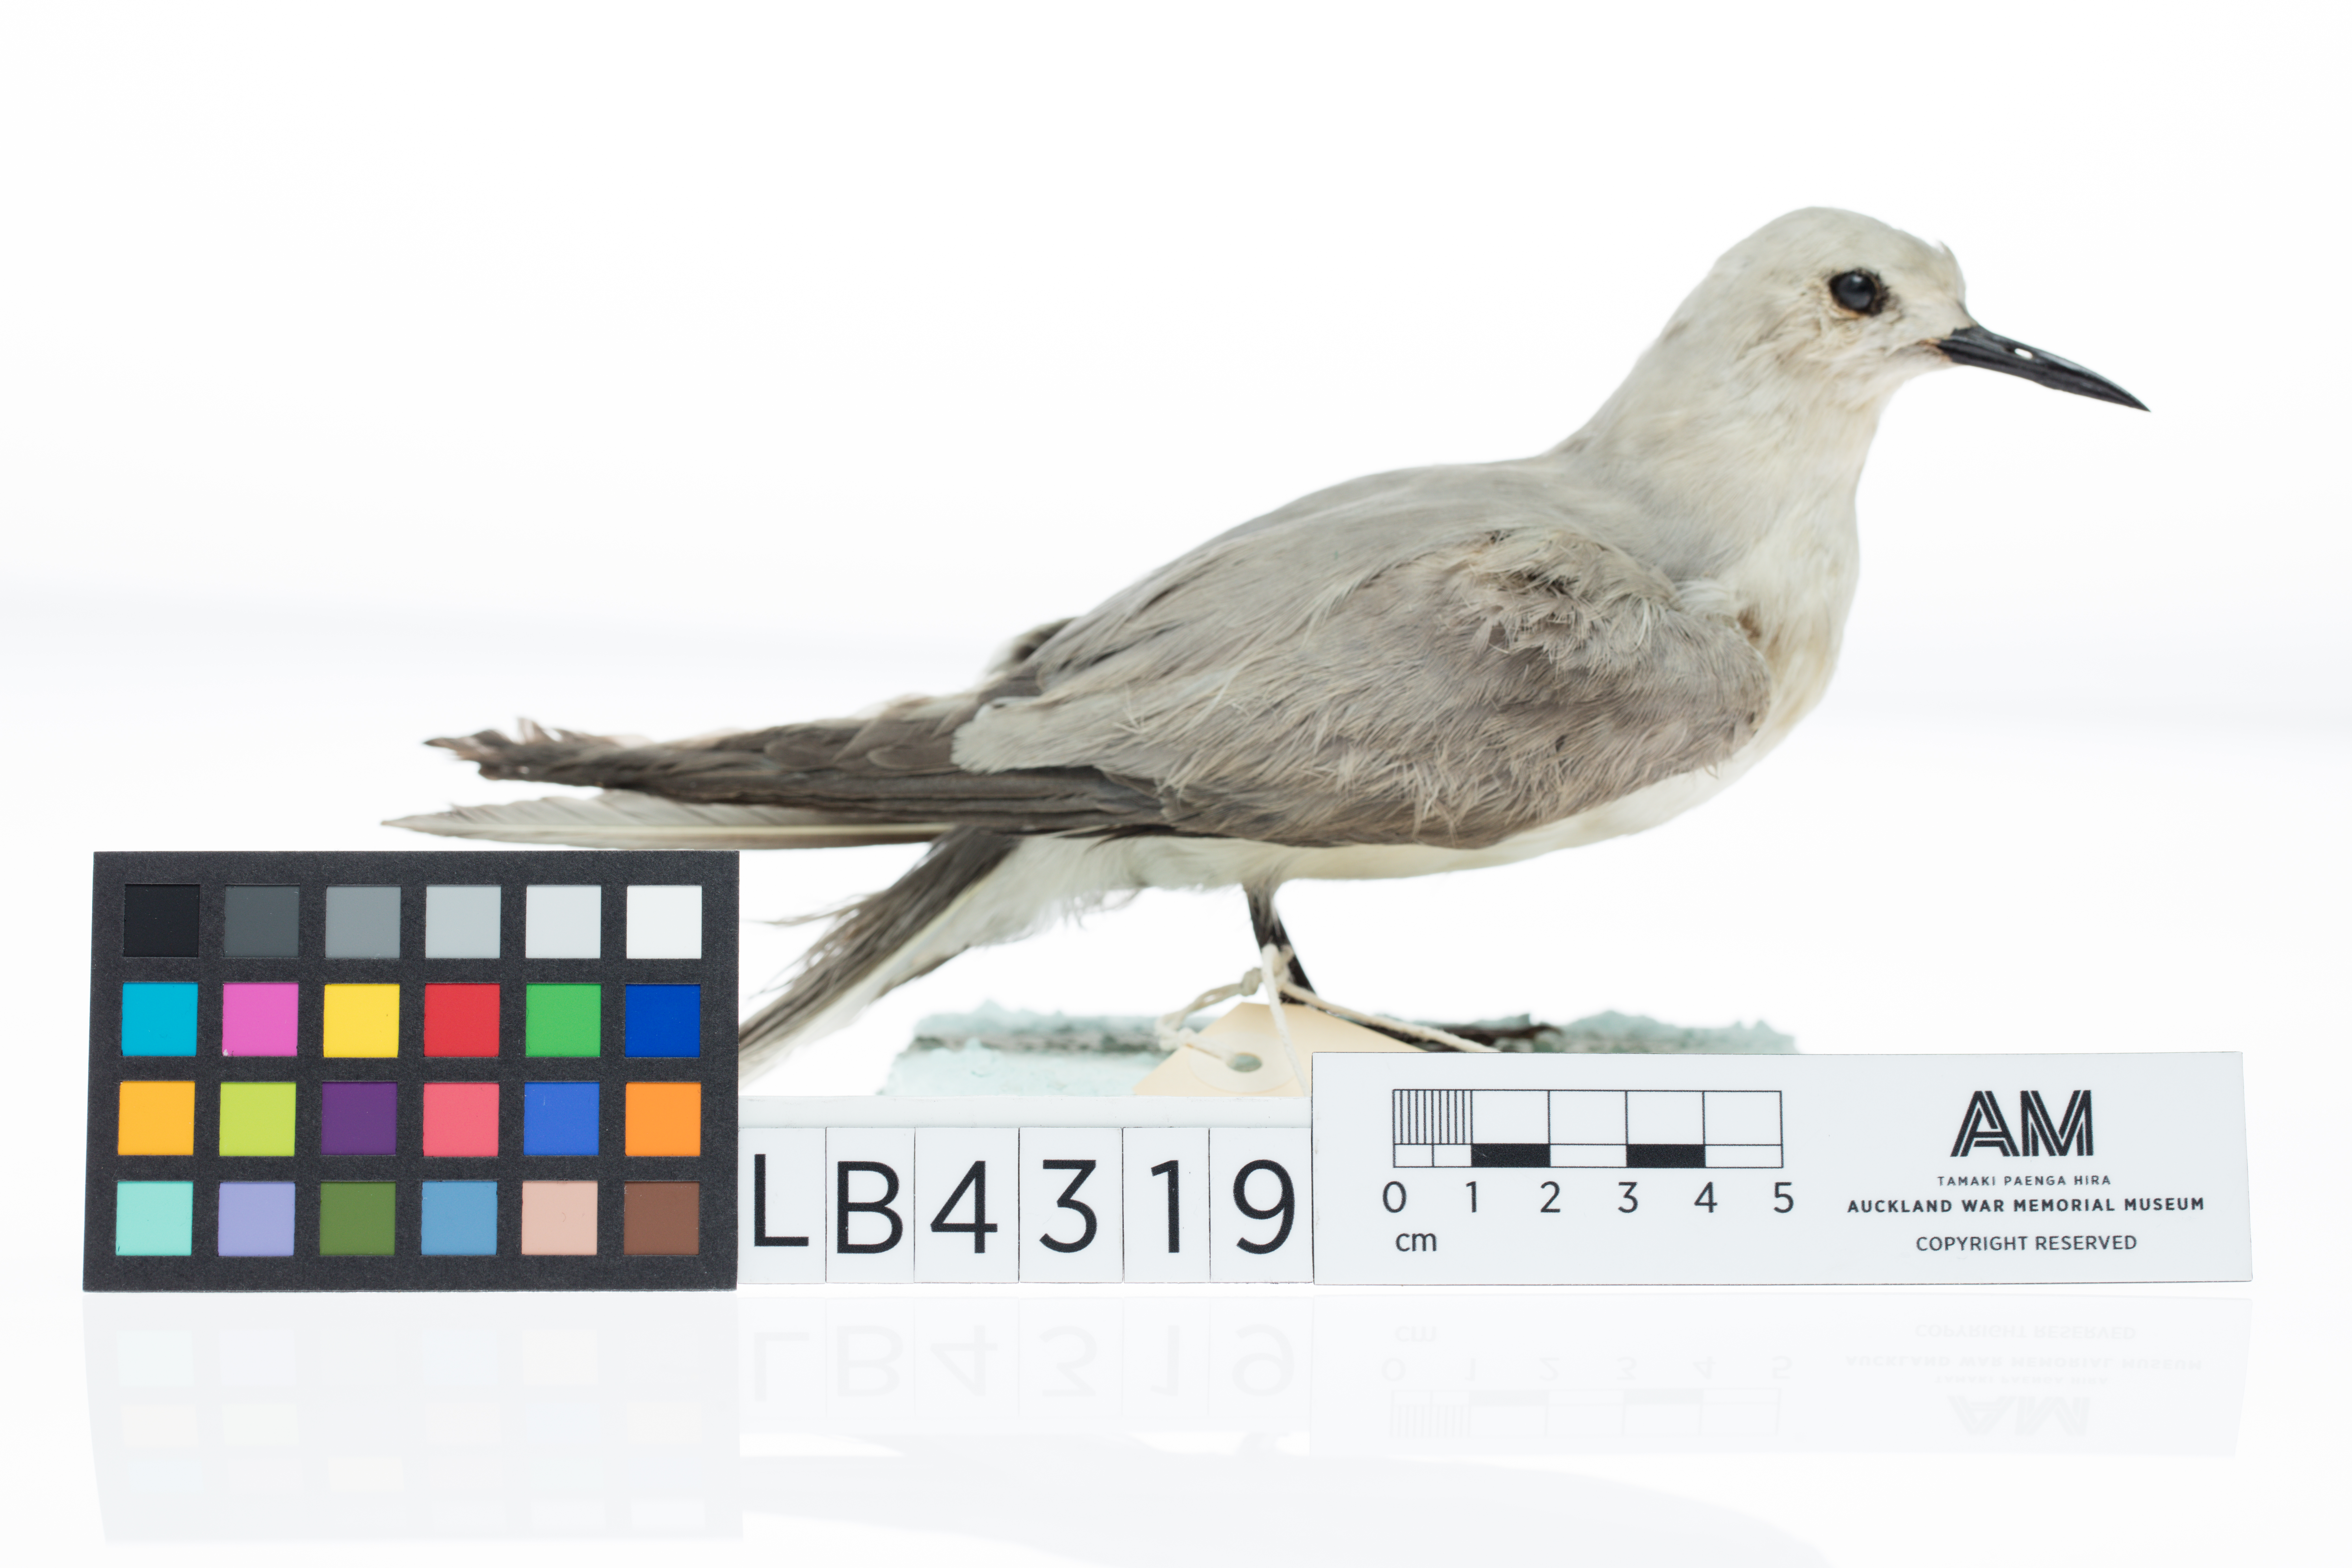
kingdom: Animalia
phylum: Chordata
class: Aves
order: Charadriiformes
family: Laridae
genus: Anous
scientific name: Anous ceruleus
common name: Blue-gray noddy
